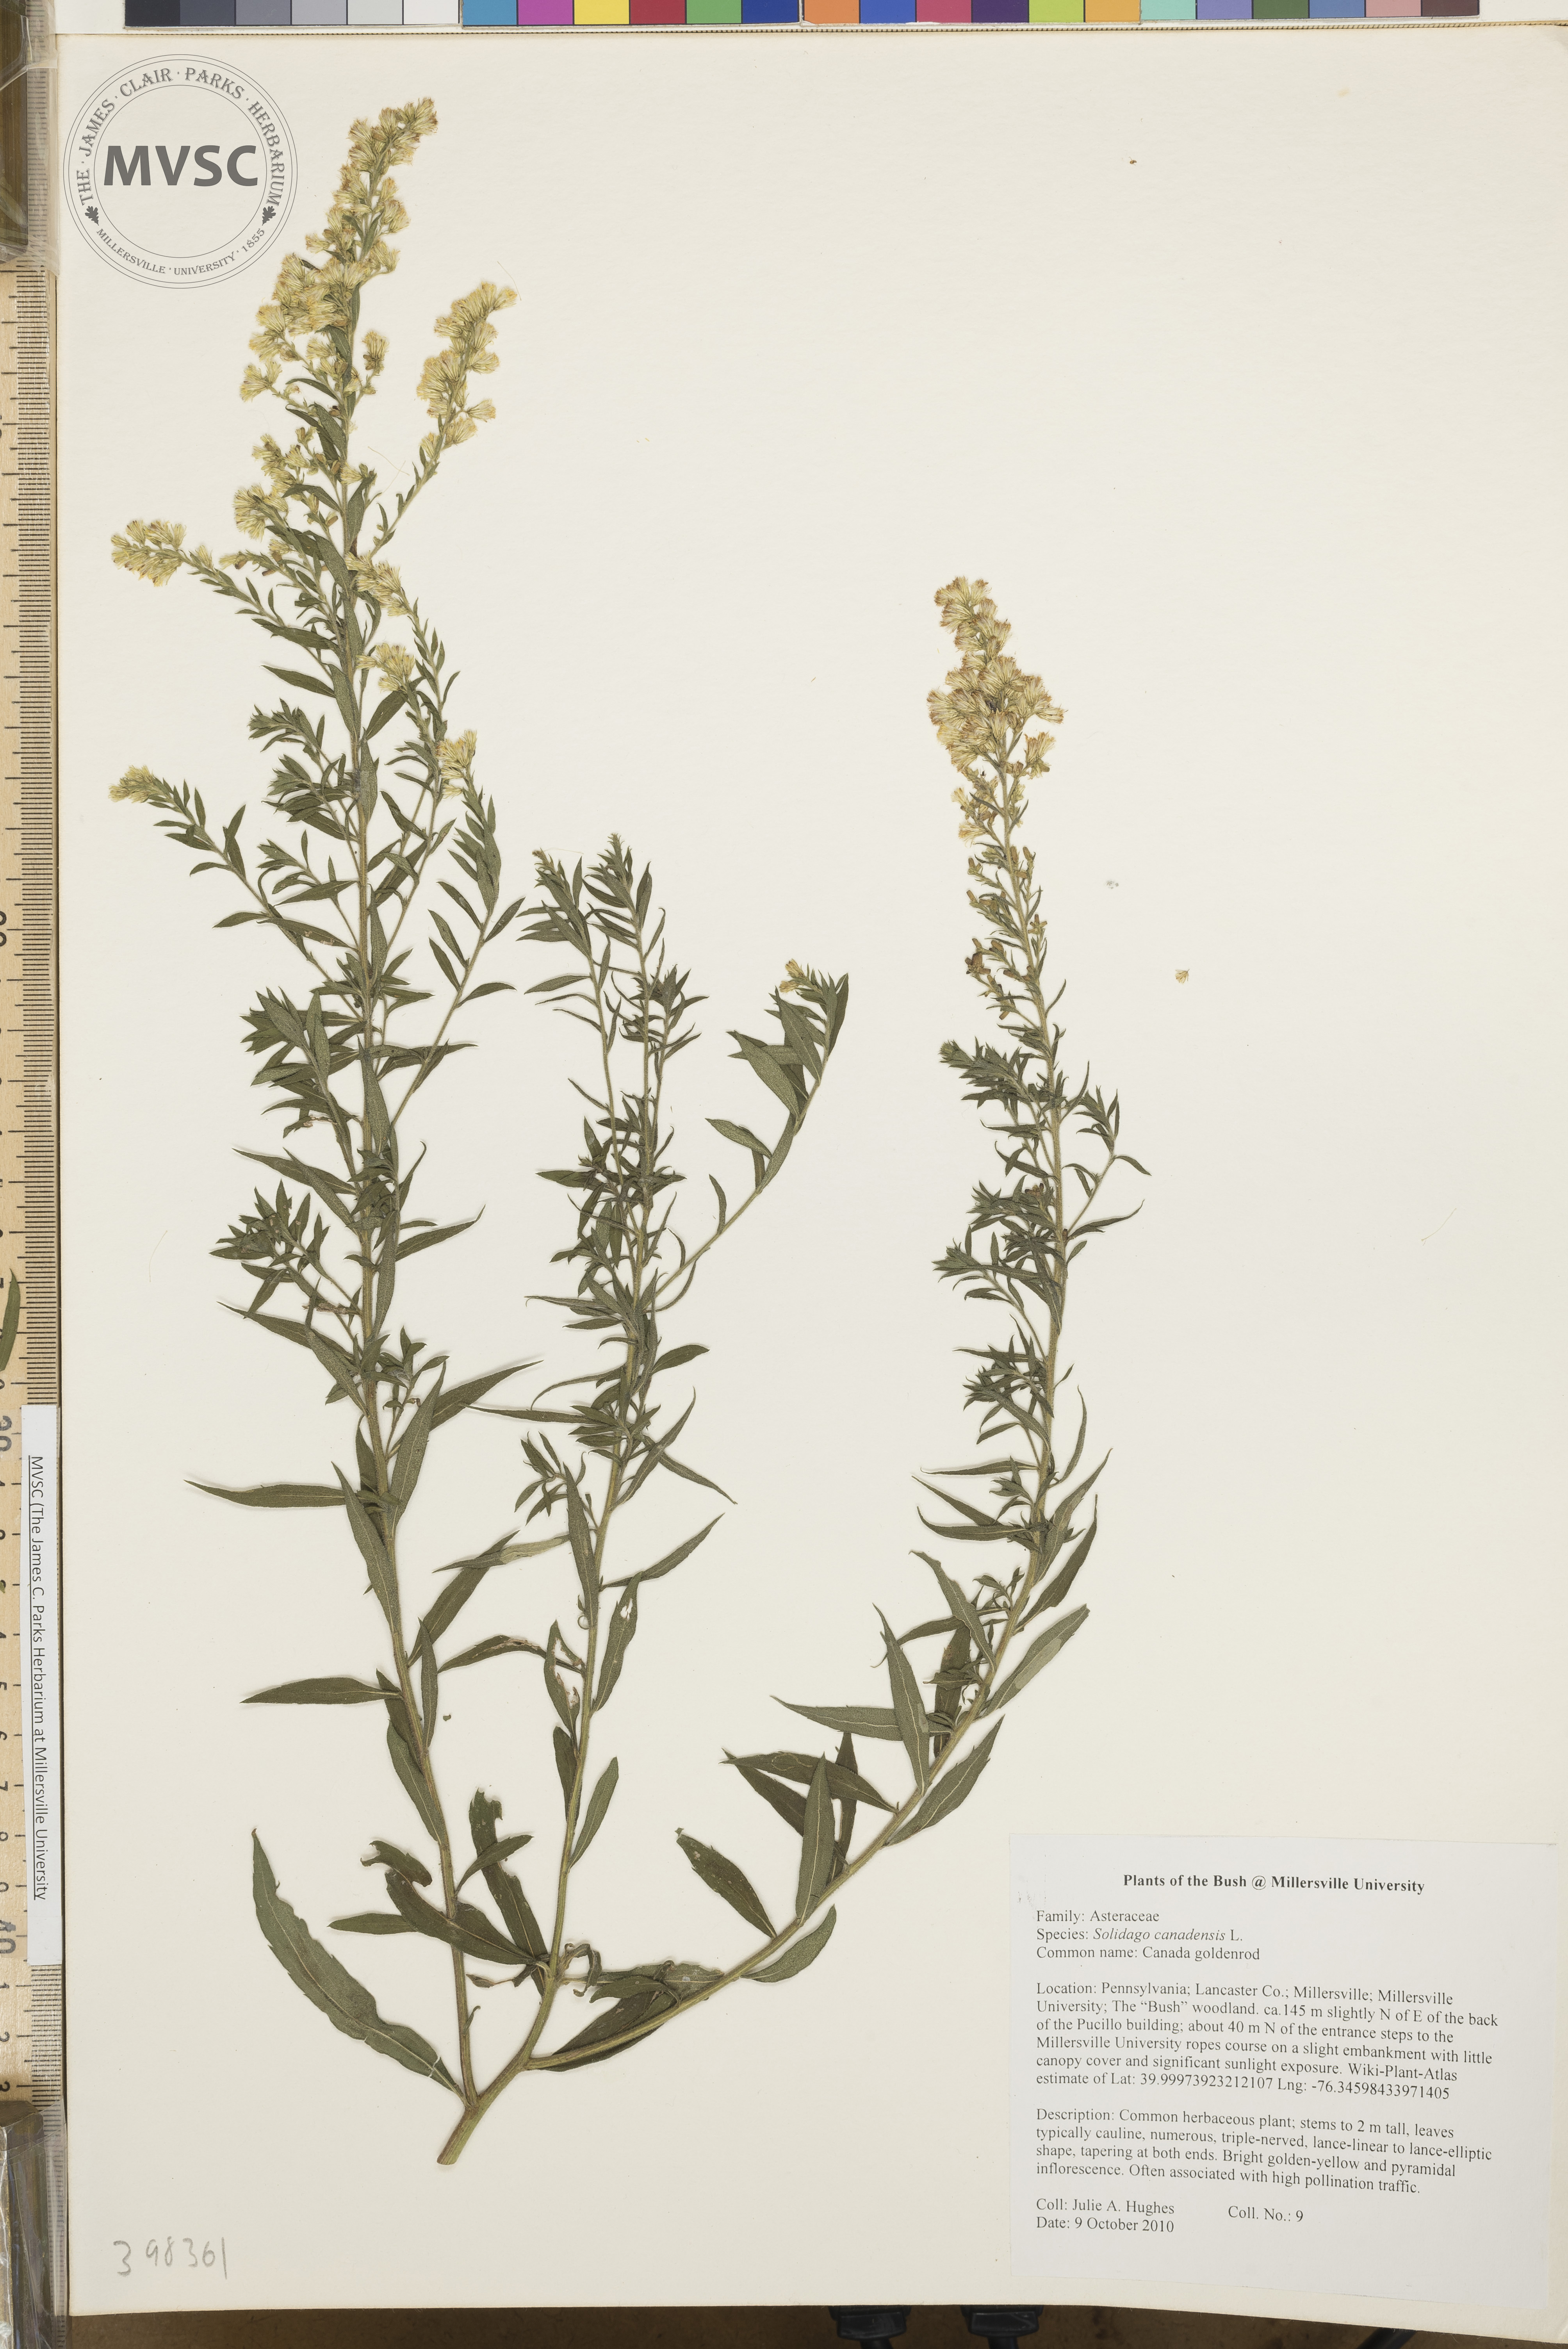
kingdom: Plantae
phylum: Tracheophyta
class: Magnoliopsida
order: Asterales
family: Asteraceae
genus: Solidago
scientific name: Solidago altissima
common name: Late goldenrod
